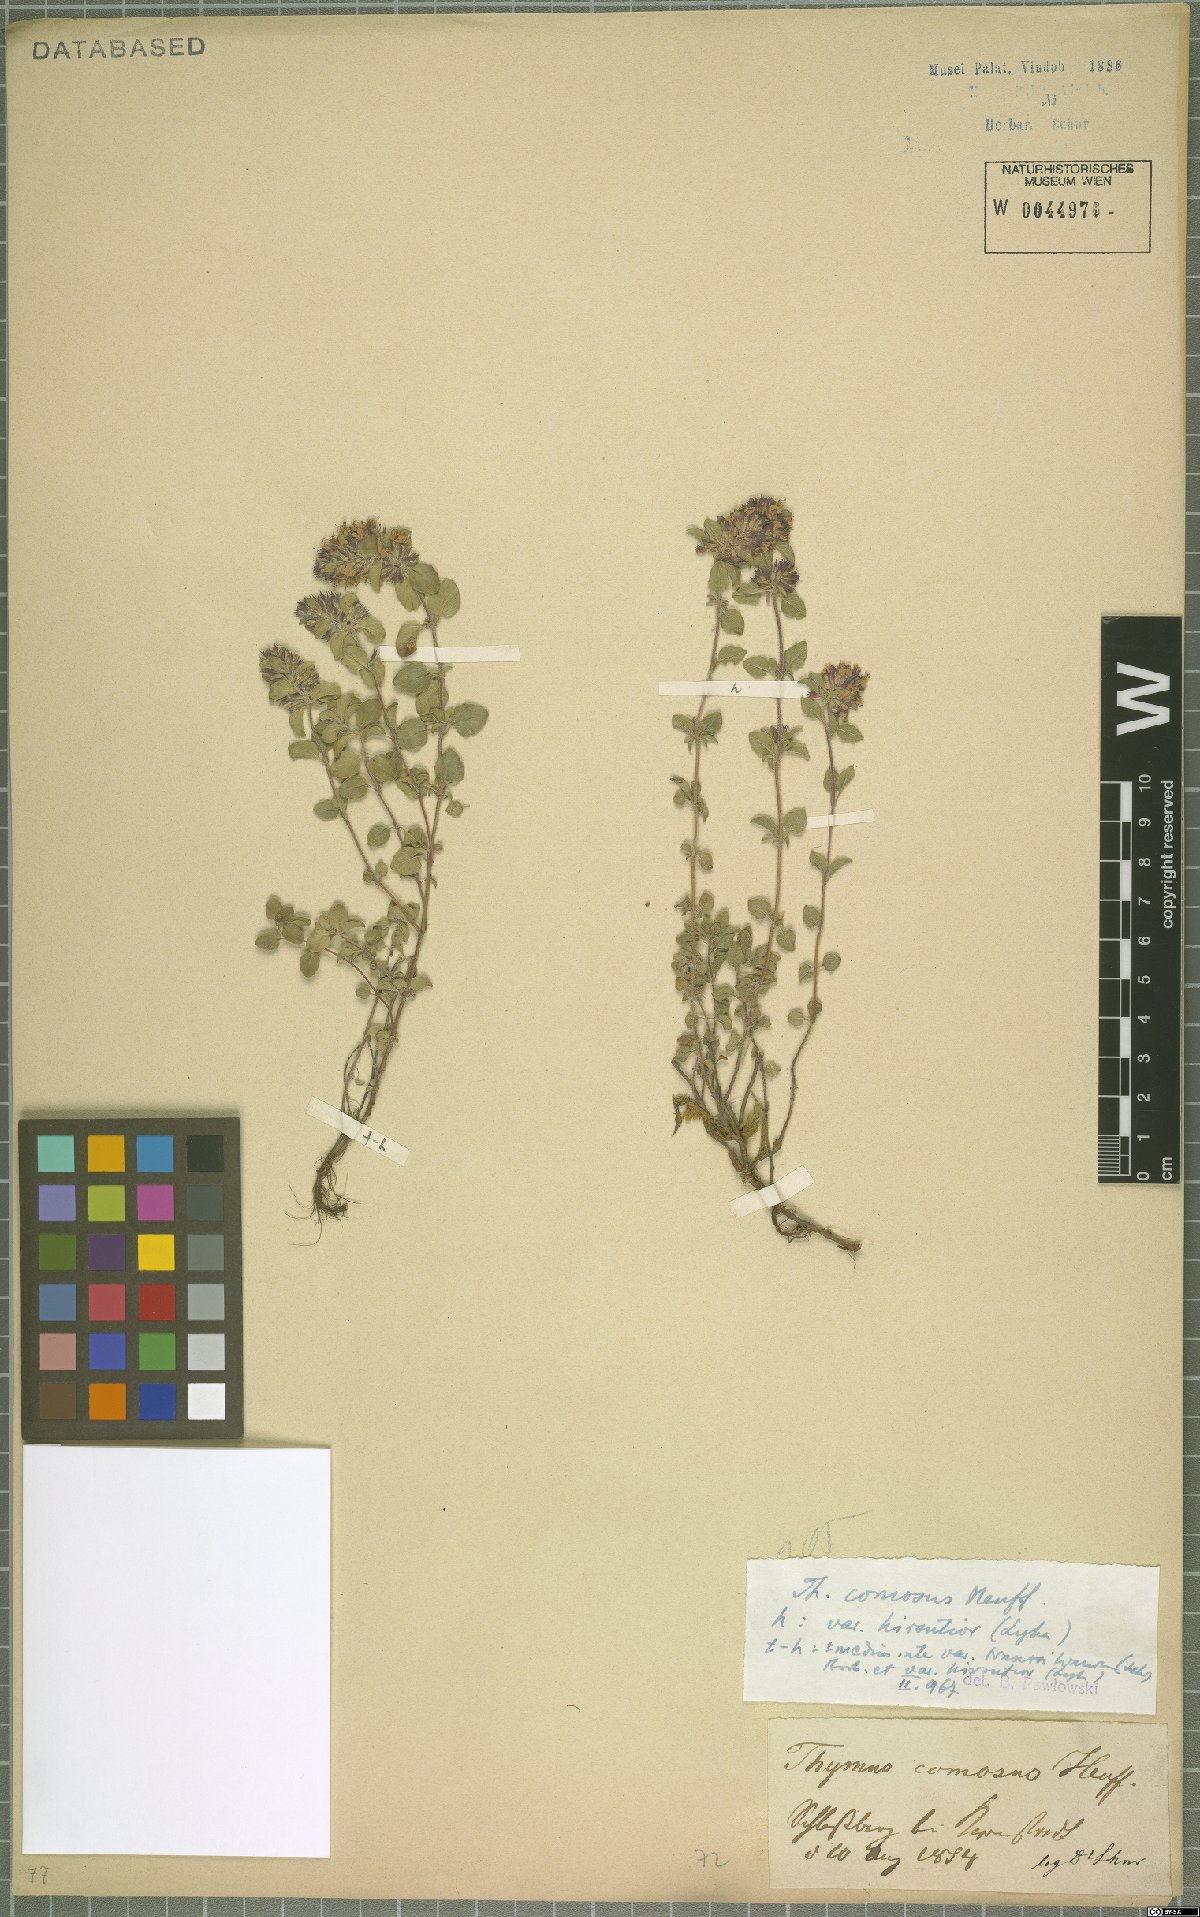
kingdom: Plantae
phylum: Tracheophyta
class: Magnoliopsida
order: Lamiales
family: Lamiaceae
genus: Thymus
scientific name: Thymus comosus
